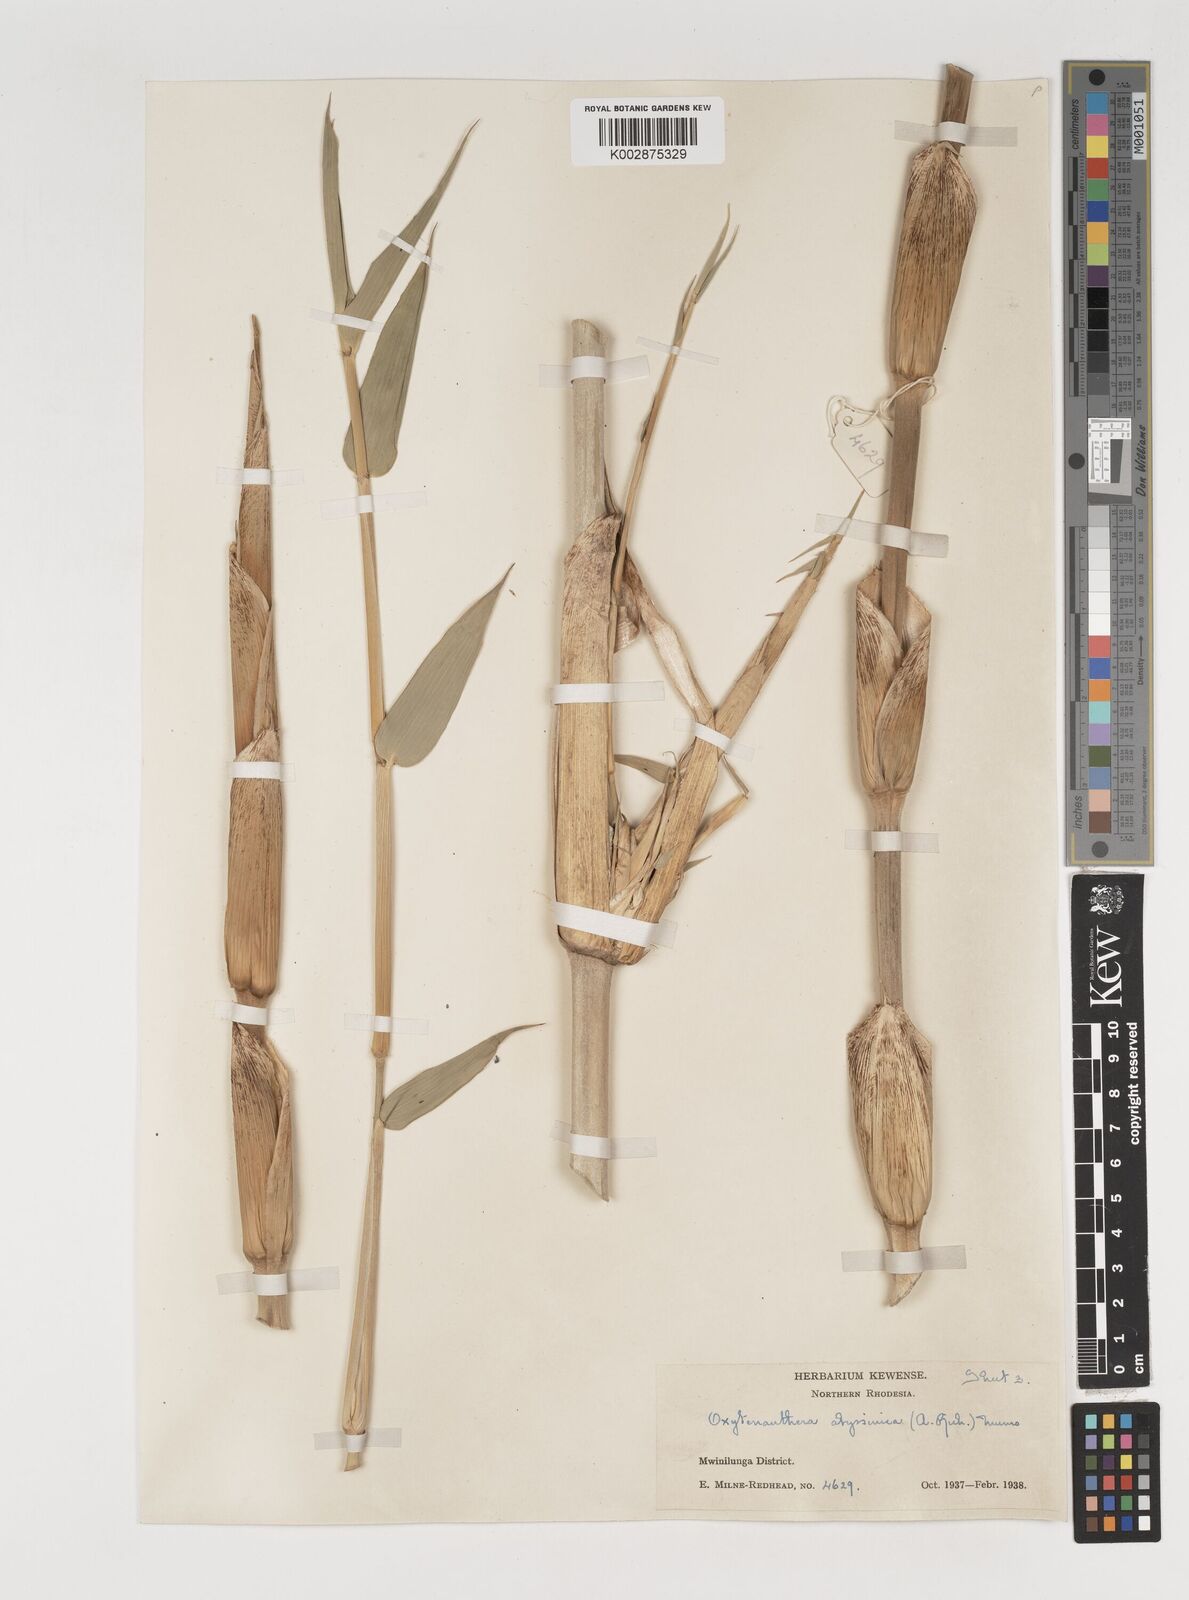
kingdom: Plantae
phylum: Tracheophyta
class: Liliopsida
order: Poales
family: Poaceae
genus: Oxytenanthera
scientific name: Oxytenanthera abyssinica
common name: Wine bamboo
